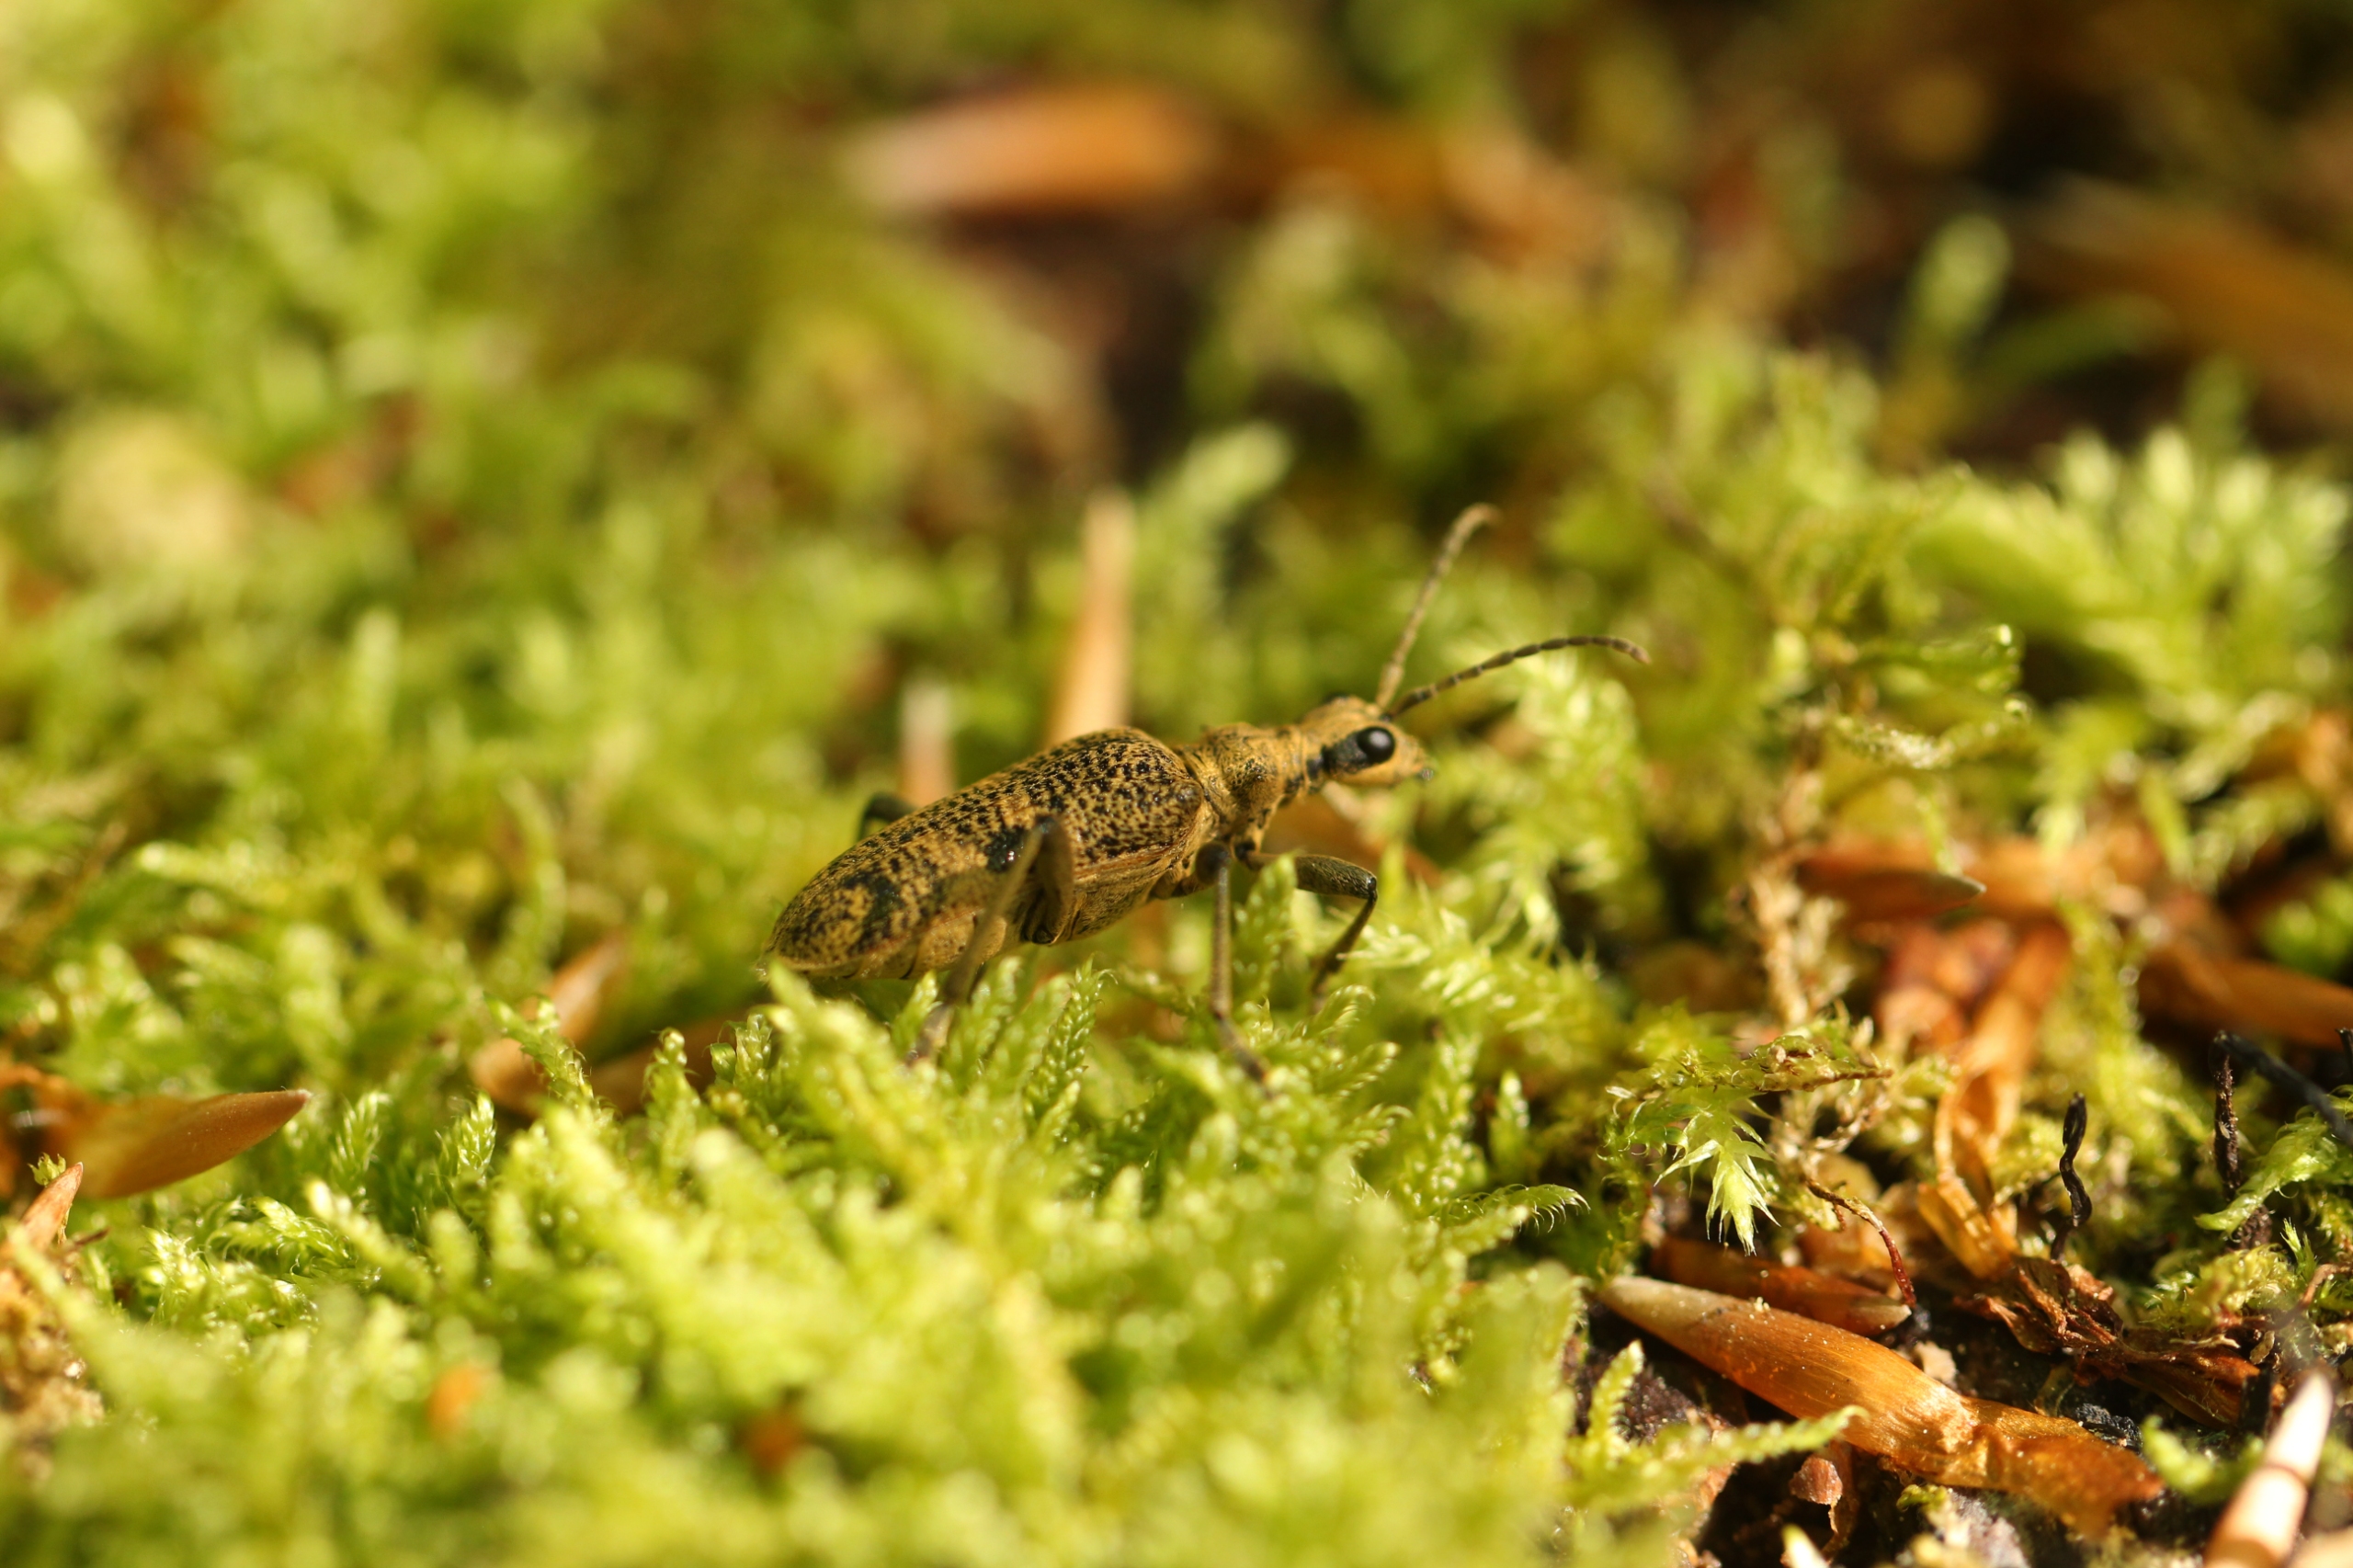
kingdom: Animalia
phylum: Arthropoda
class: Insecta
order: Coleoptera
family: Cerambycidae
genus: Rhagium
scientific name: Rhagium mordax
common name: Blankplettet tandbuk
